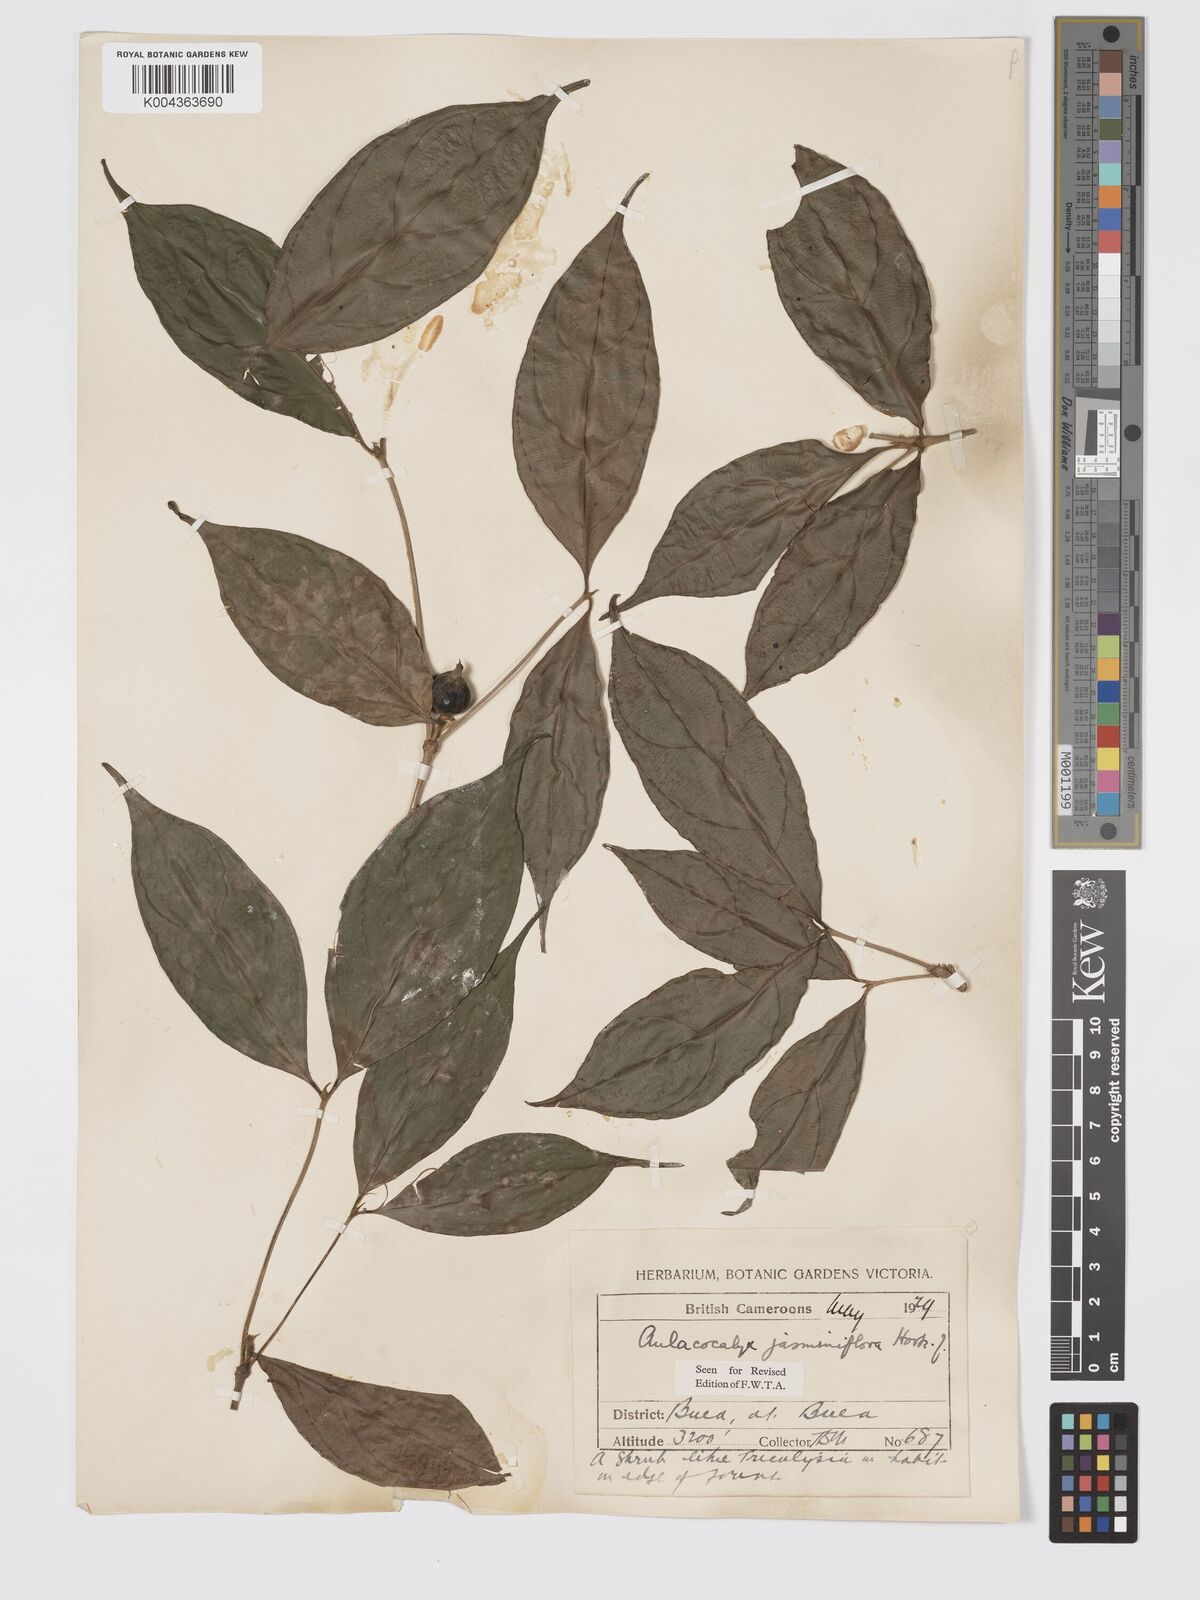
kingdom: Plantae
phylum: Tracheophyta
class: Magnoliopsida
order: Gentianales
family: Rubiaceae
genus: Aulacocalyx
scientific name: Aulacocalyx jasminiflora
